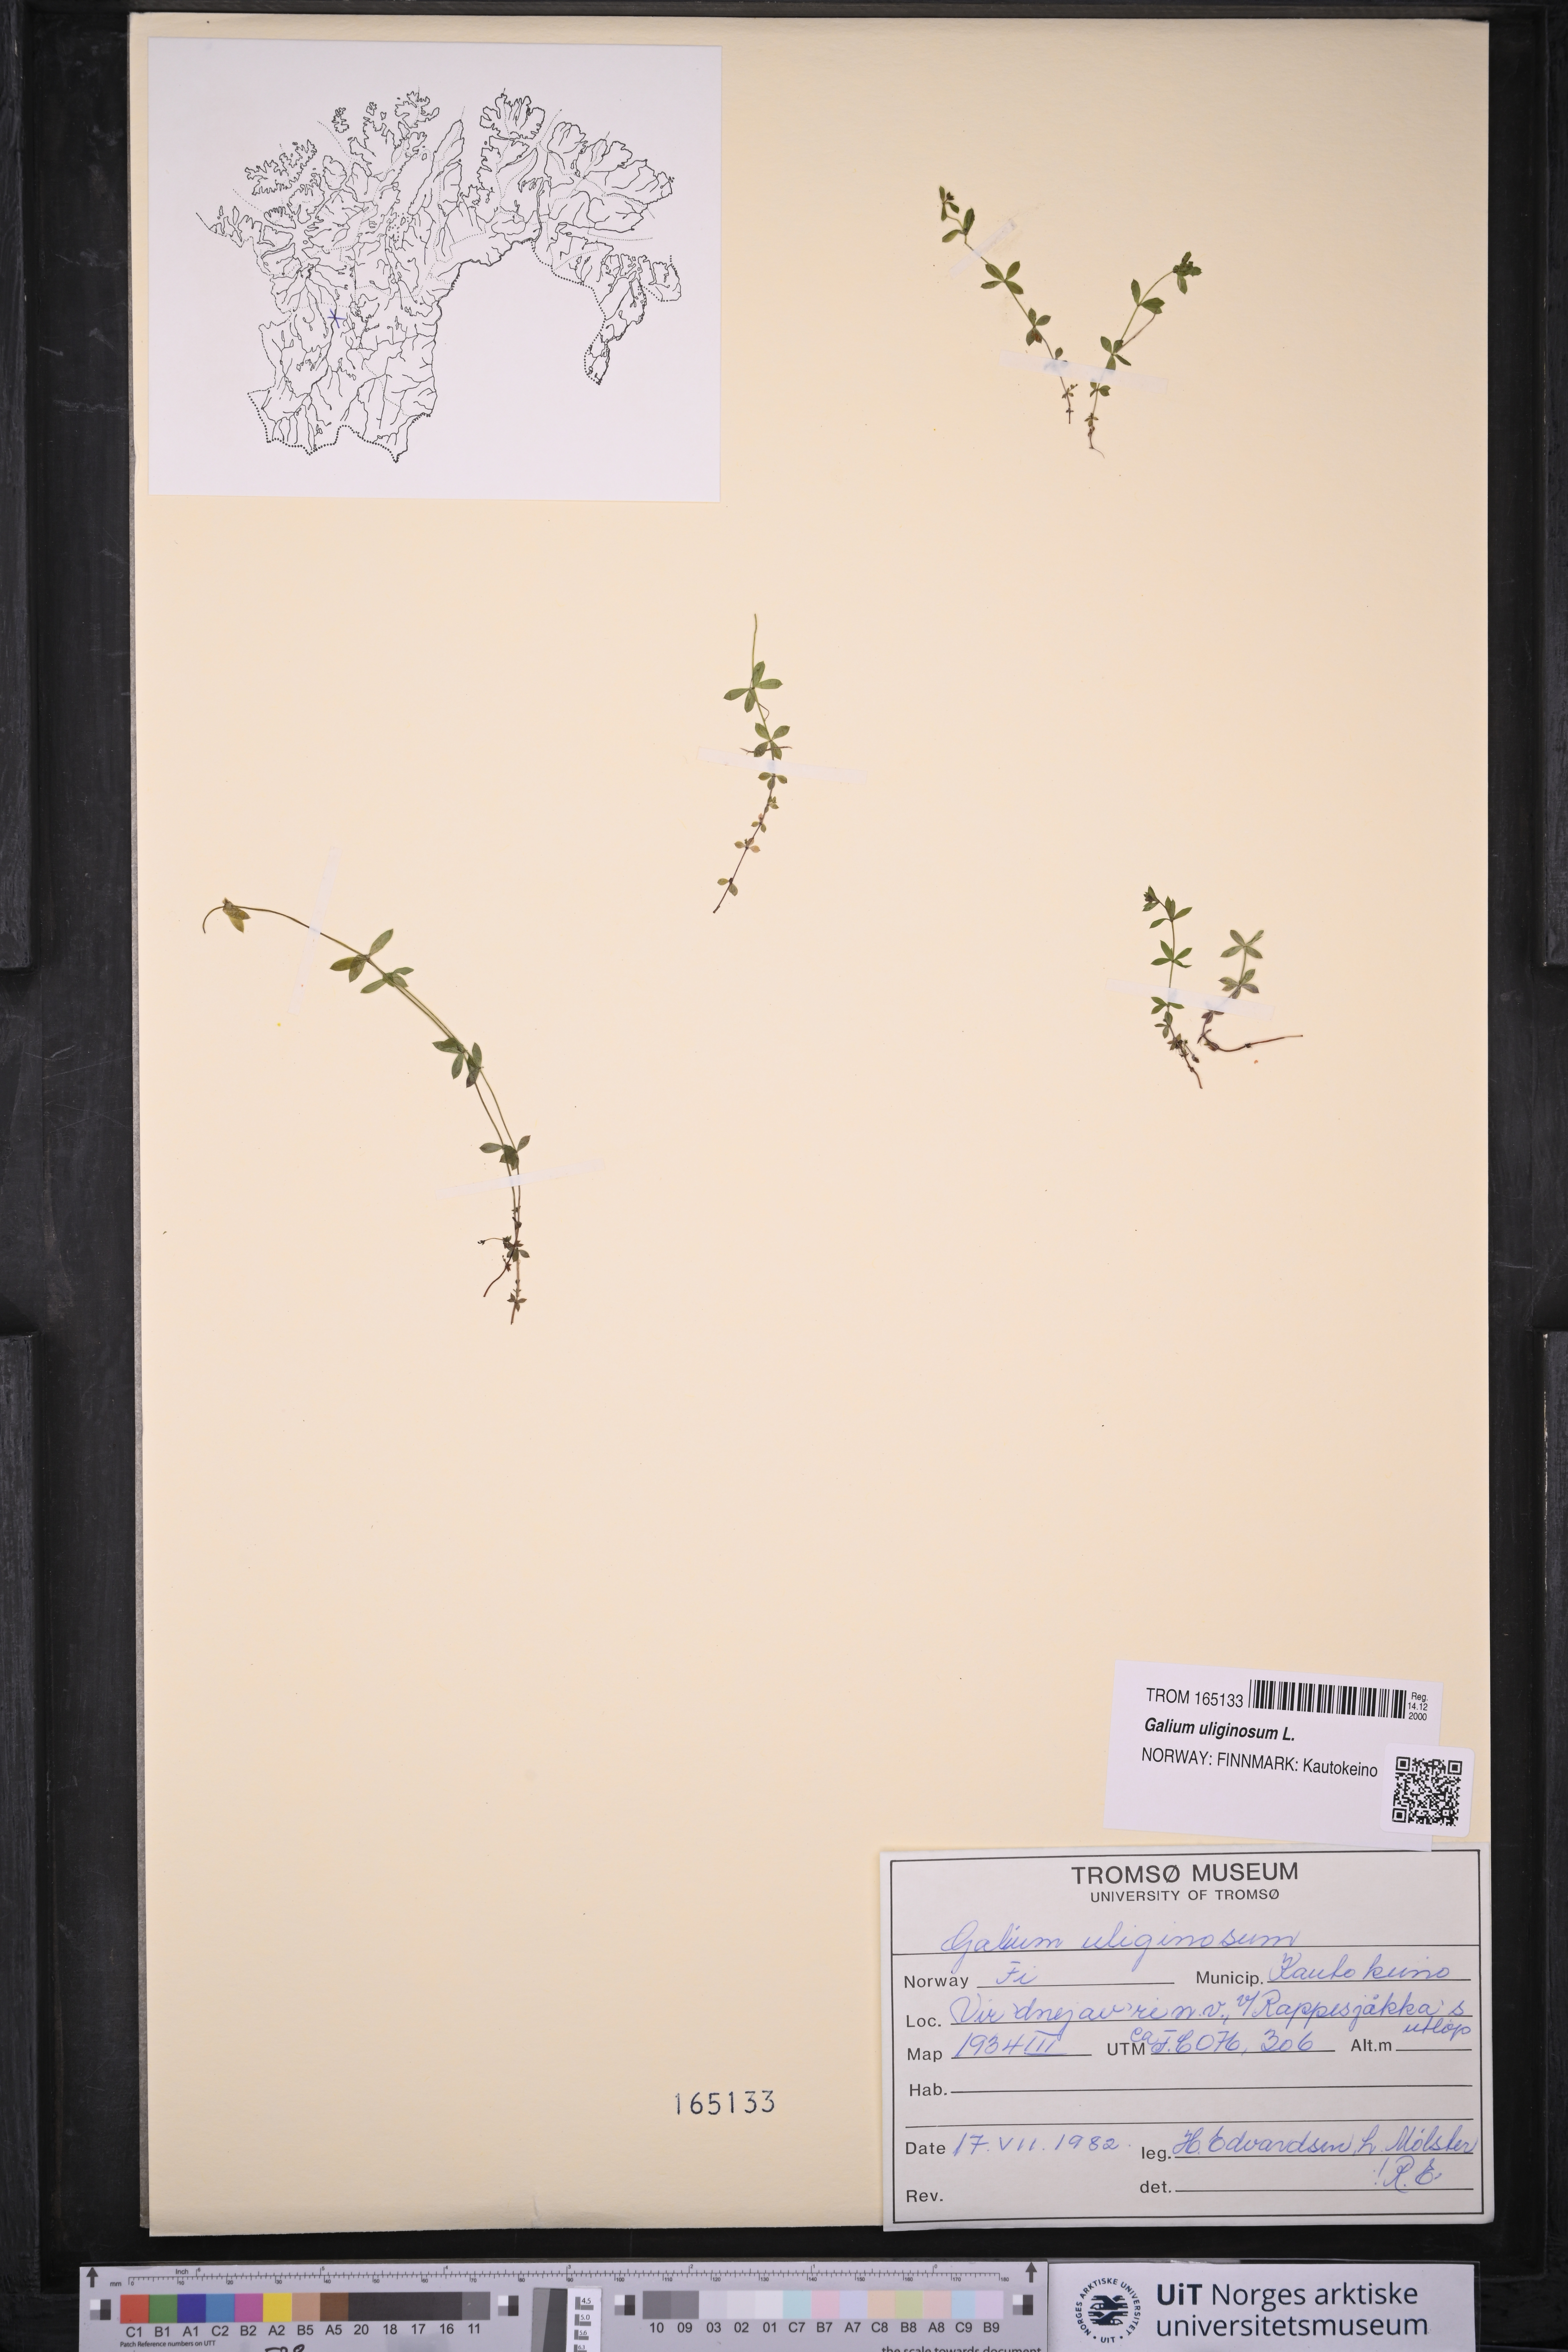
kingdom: Plantae
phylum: Tracheophyta
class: Magnoliopsida
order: Gentianales
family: Rubiaceae
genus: Galium
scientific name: Galium uliginosum
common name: Fen bedstraw
